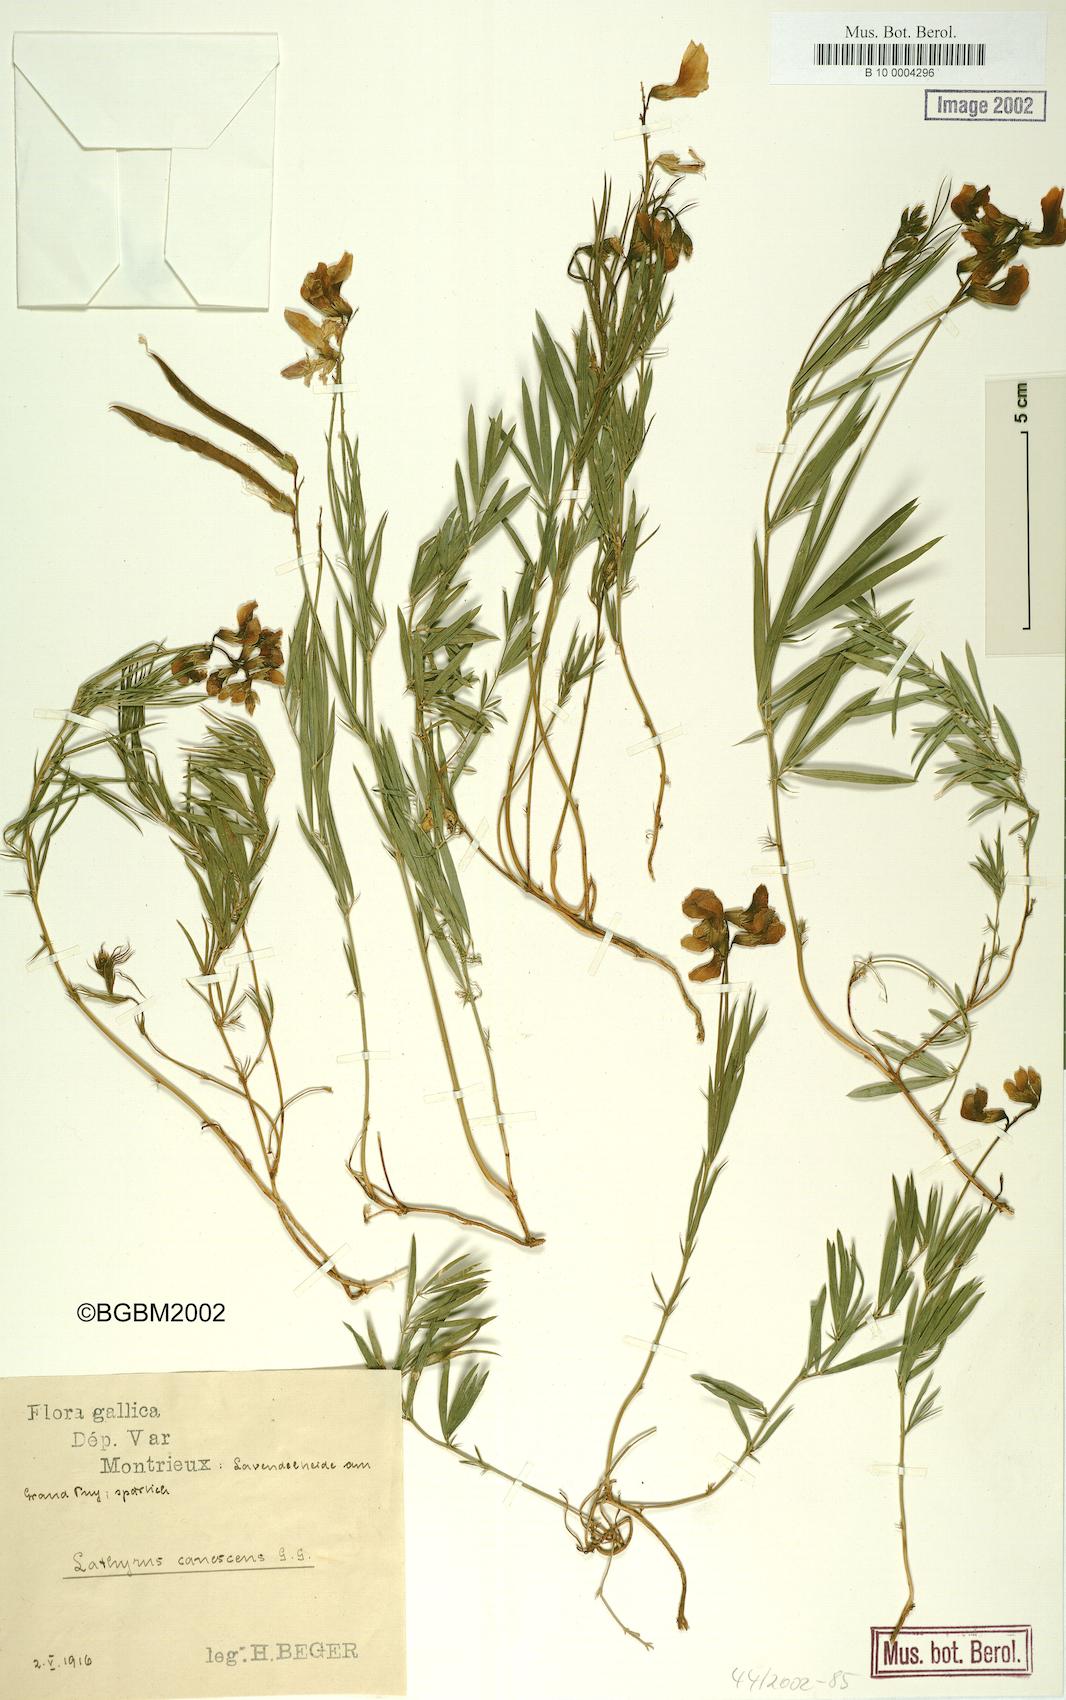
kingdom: Plantae
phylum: Tracheophyta
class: Magnoliopsida
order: Fabales
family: Fabaceae
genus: Lathyrus
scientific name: Lathyrus filiformis
